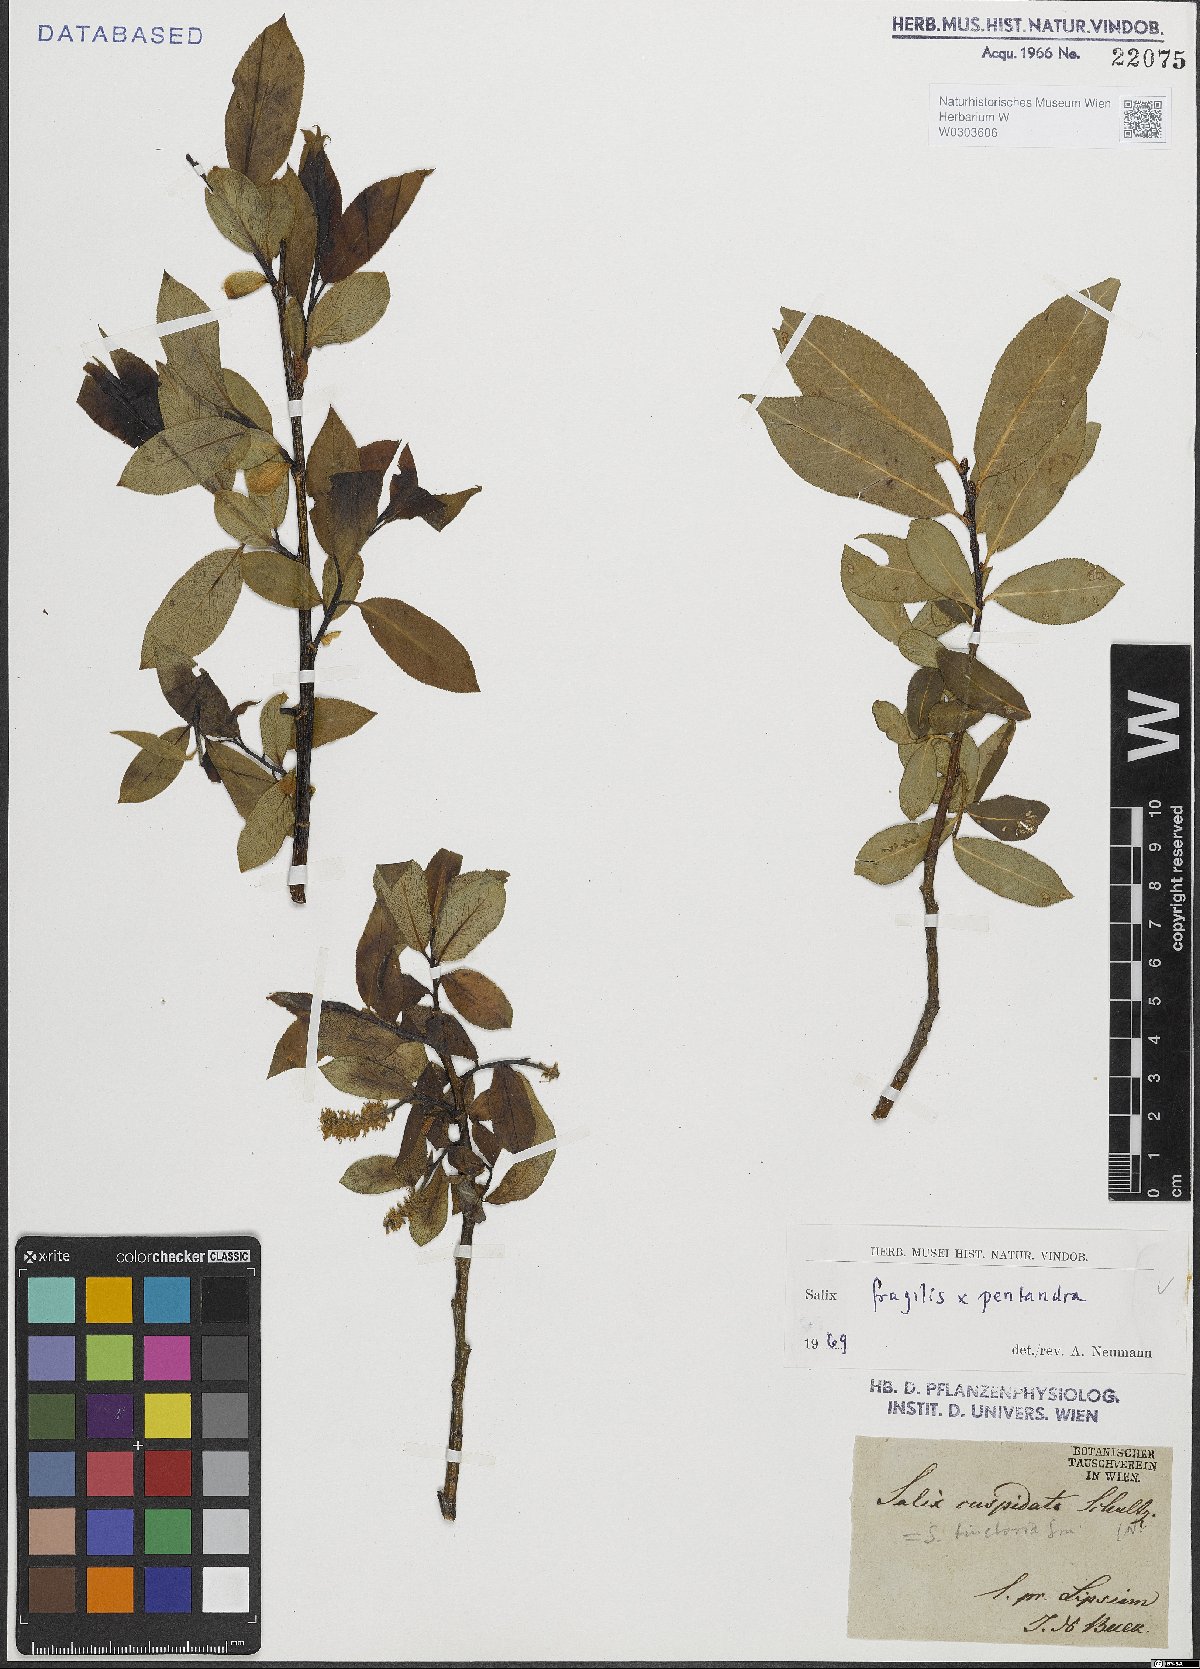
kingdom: Plantae
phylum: Tracheophyta
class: Magnoliopsida
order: Malpighiales
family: Salicaceae
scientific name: Salicaceae
